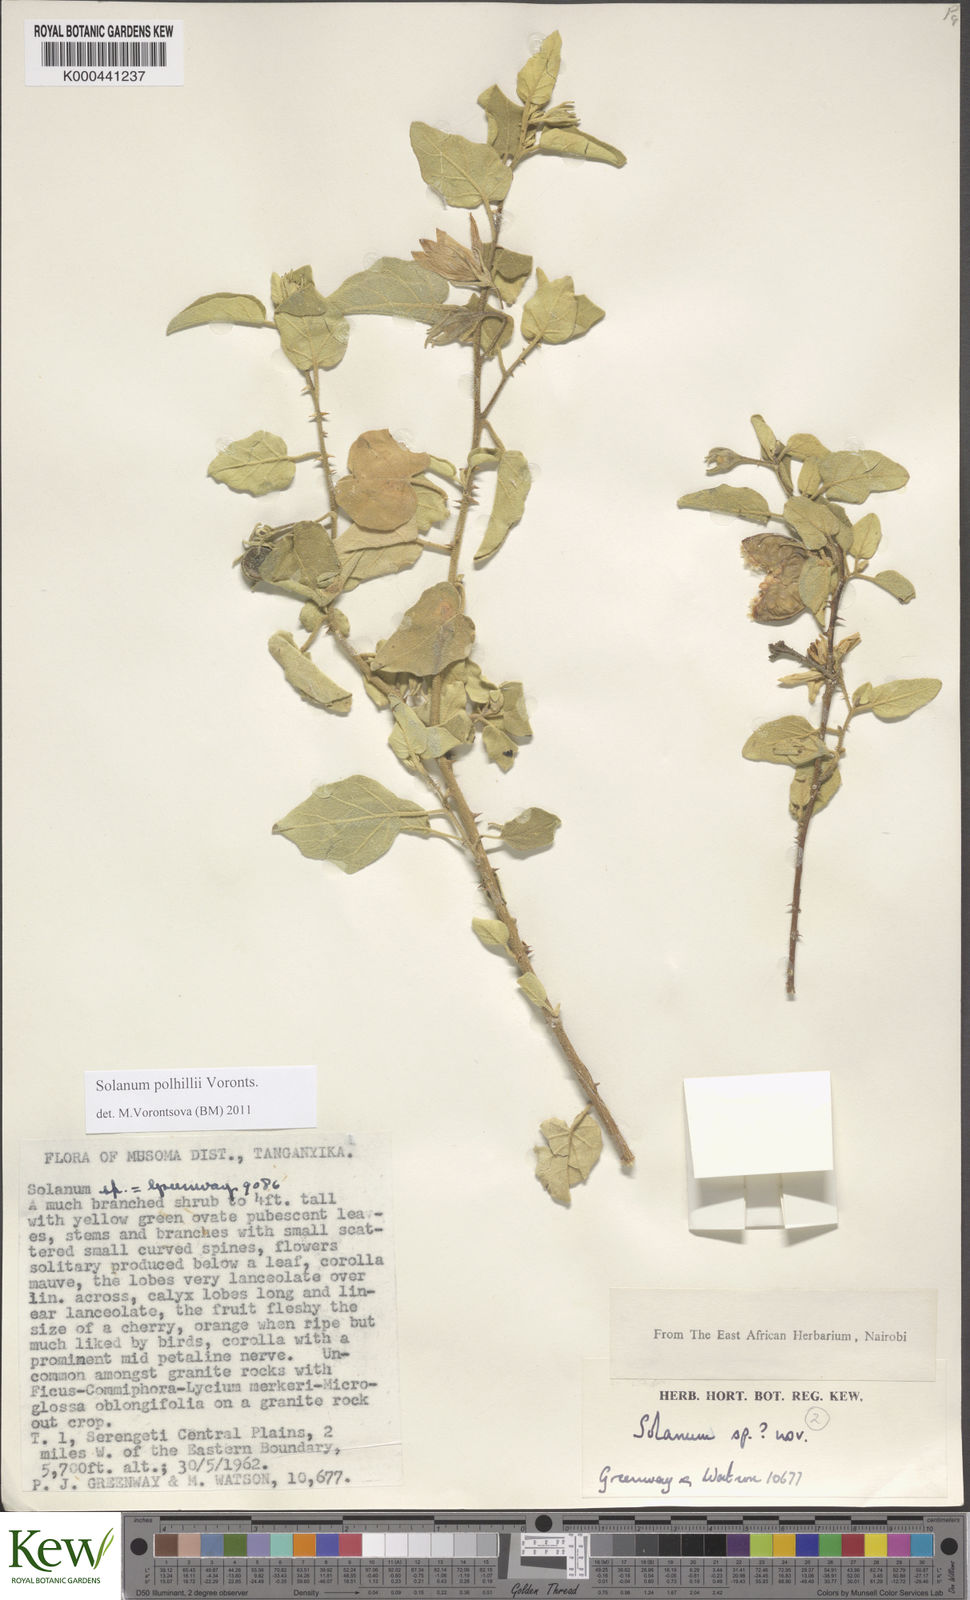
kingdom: Plantae
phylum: Tracheophyta
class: Magnoliopsida
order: Solanales
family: Solanaceae
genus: Solanum
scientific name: Solanum polhillii
